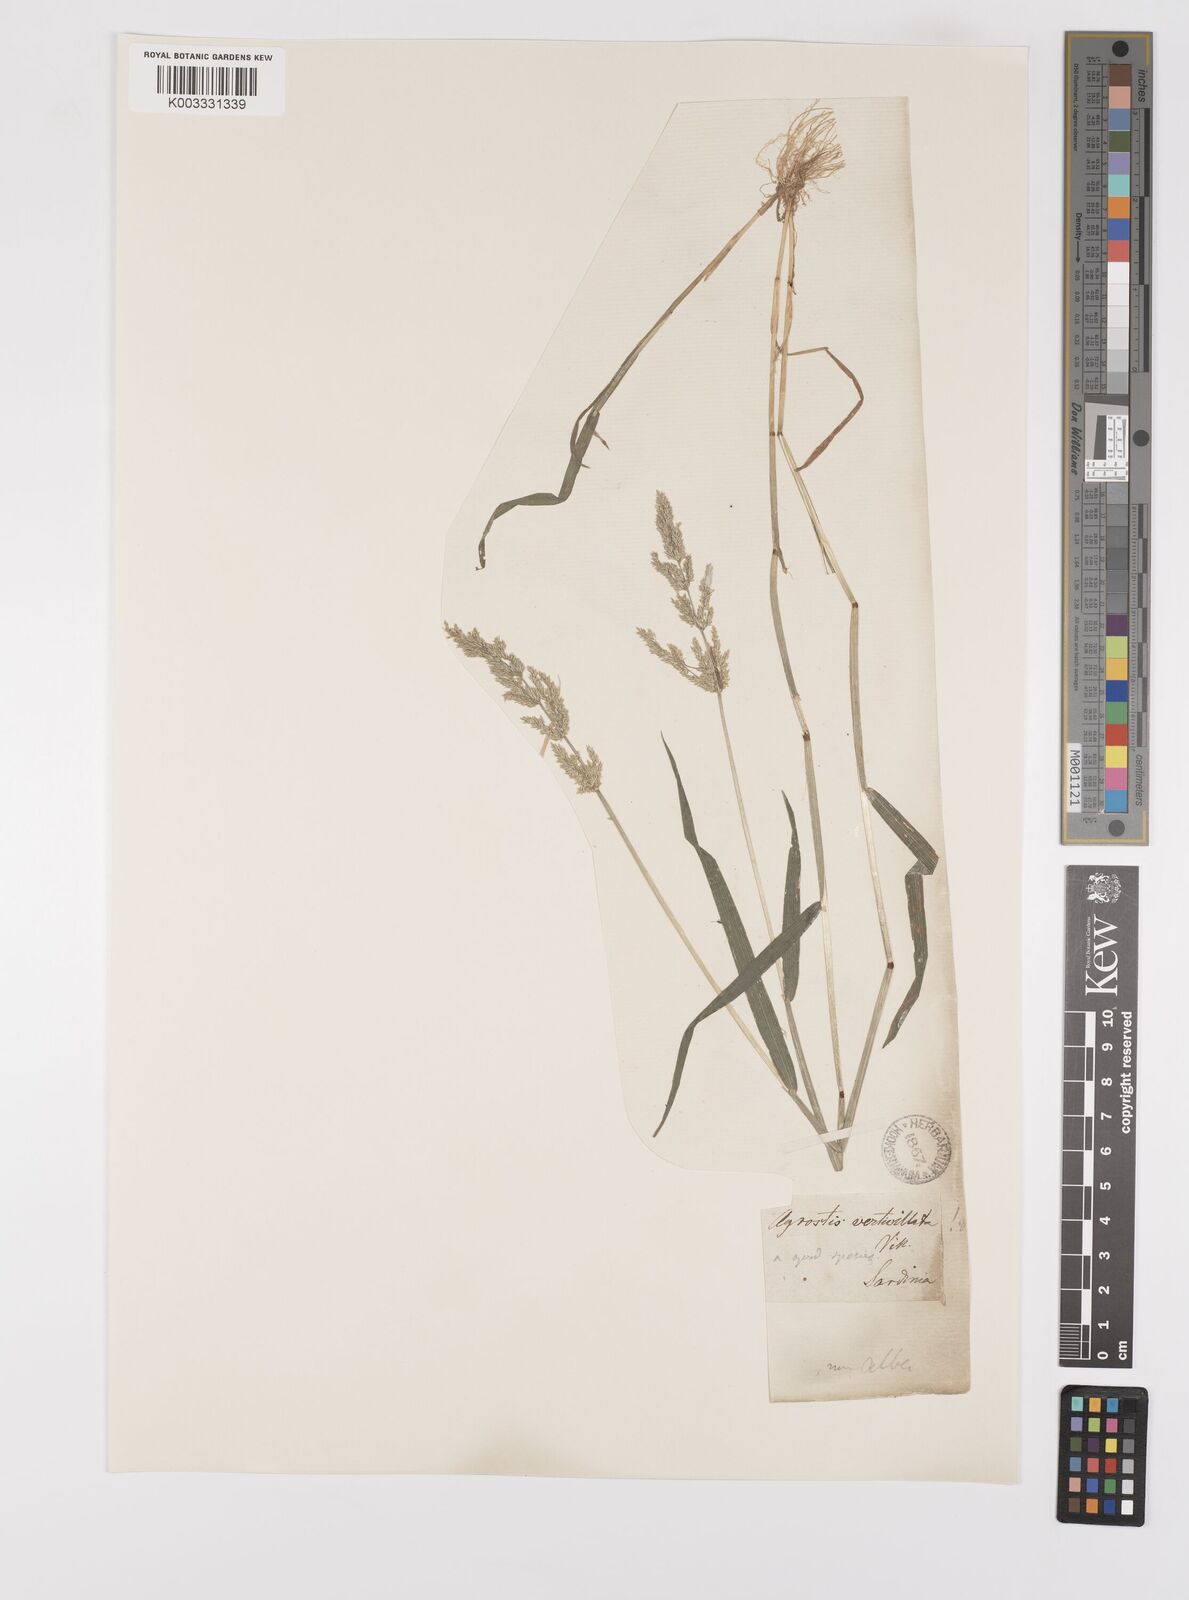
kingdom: Plantae
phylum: Tracheophyta
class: Liliopsida
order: Poales
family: Poaceae
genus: Polypogon
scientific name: Polypogon viridis
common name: Water bent
